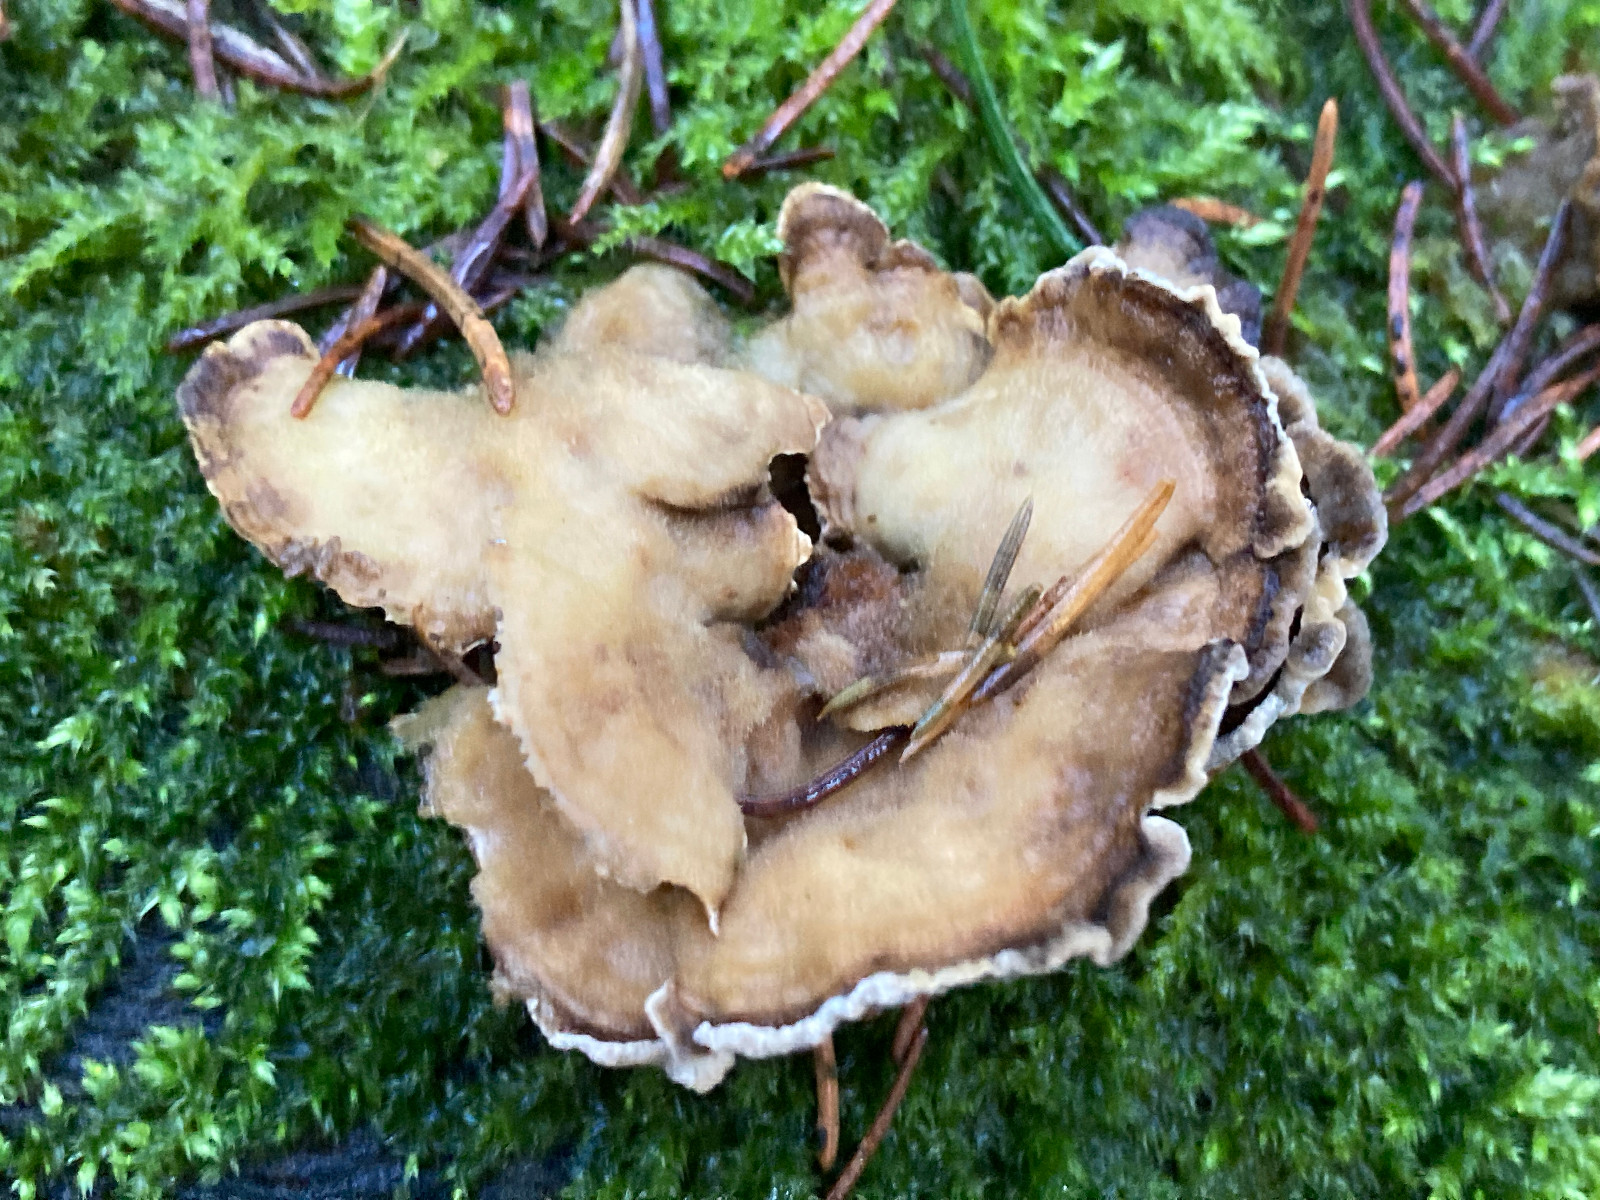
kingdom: Fungi
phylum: Basidiomycota
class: Agaricomycetes
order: Polyporales
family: Phanerochaetaceae
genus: Bjerkandera
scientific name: Bjerkandera adusta
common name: sveden sodporesvamp
